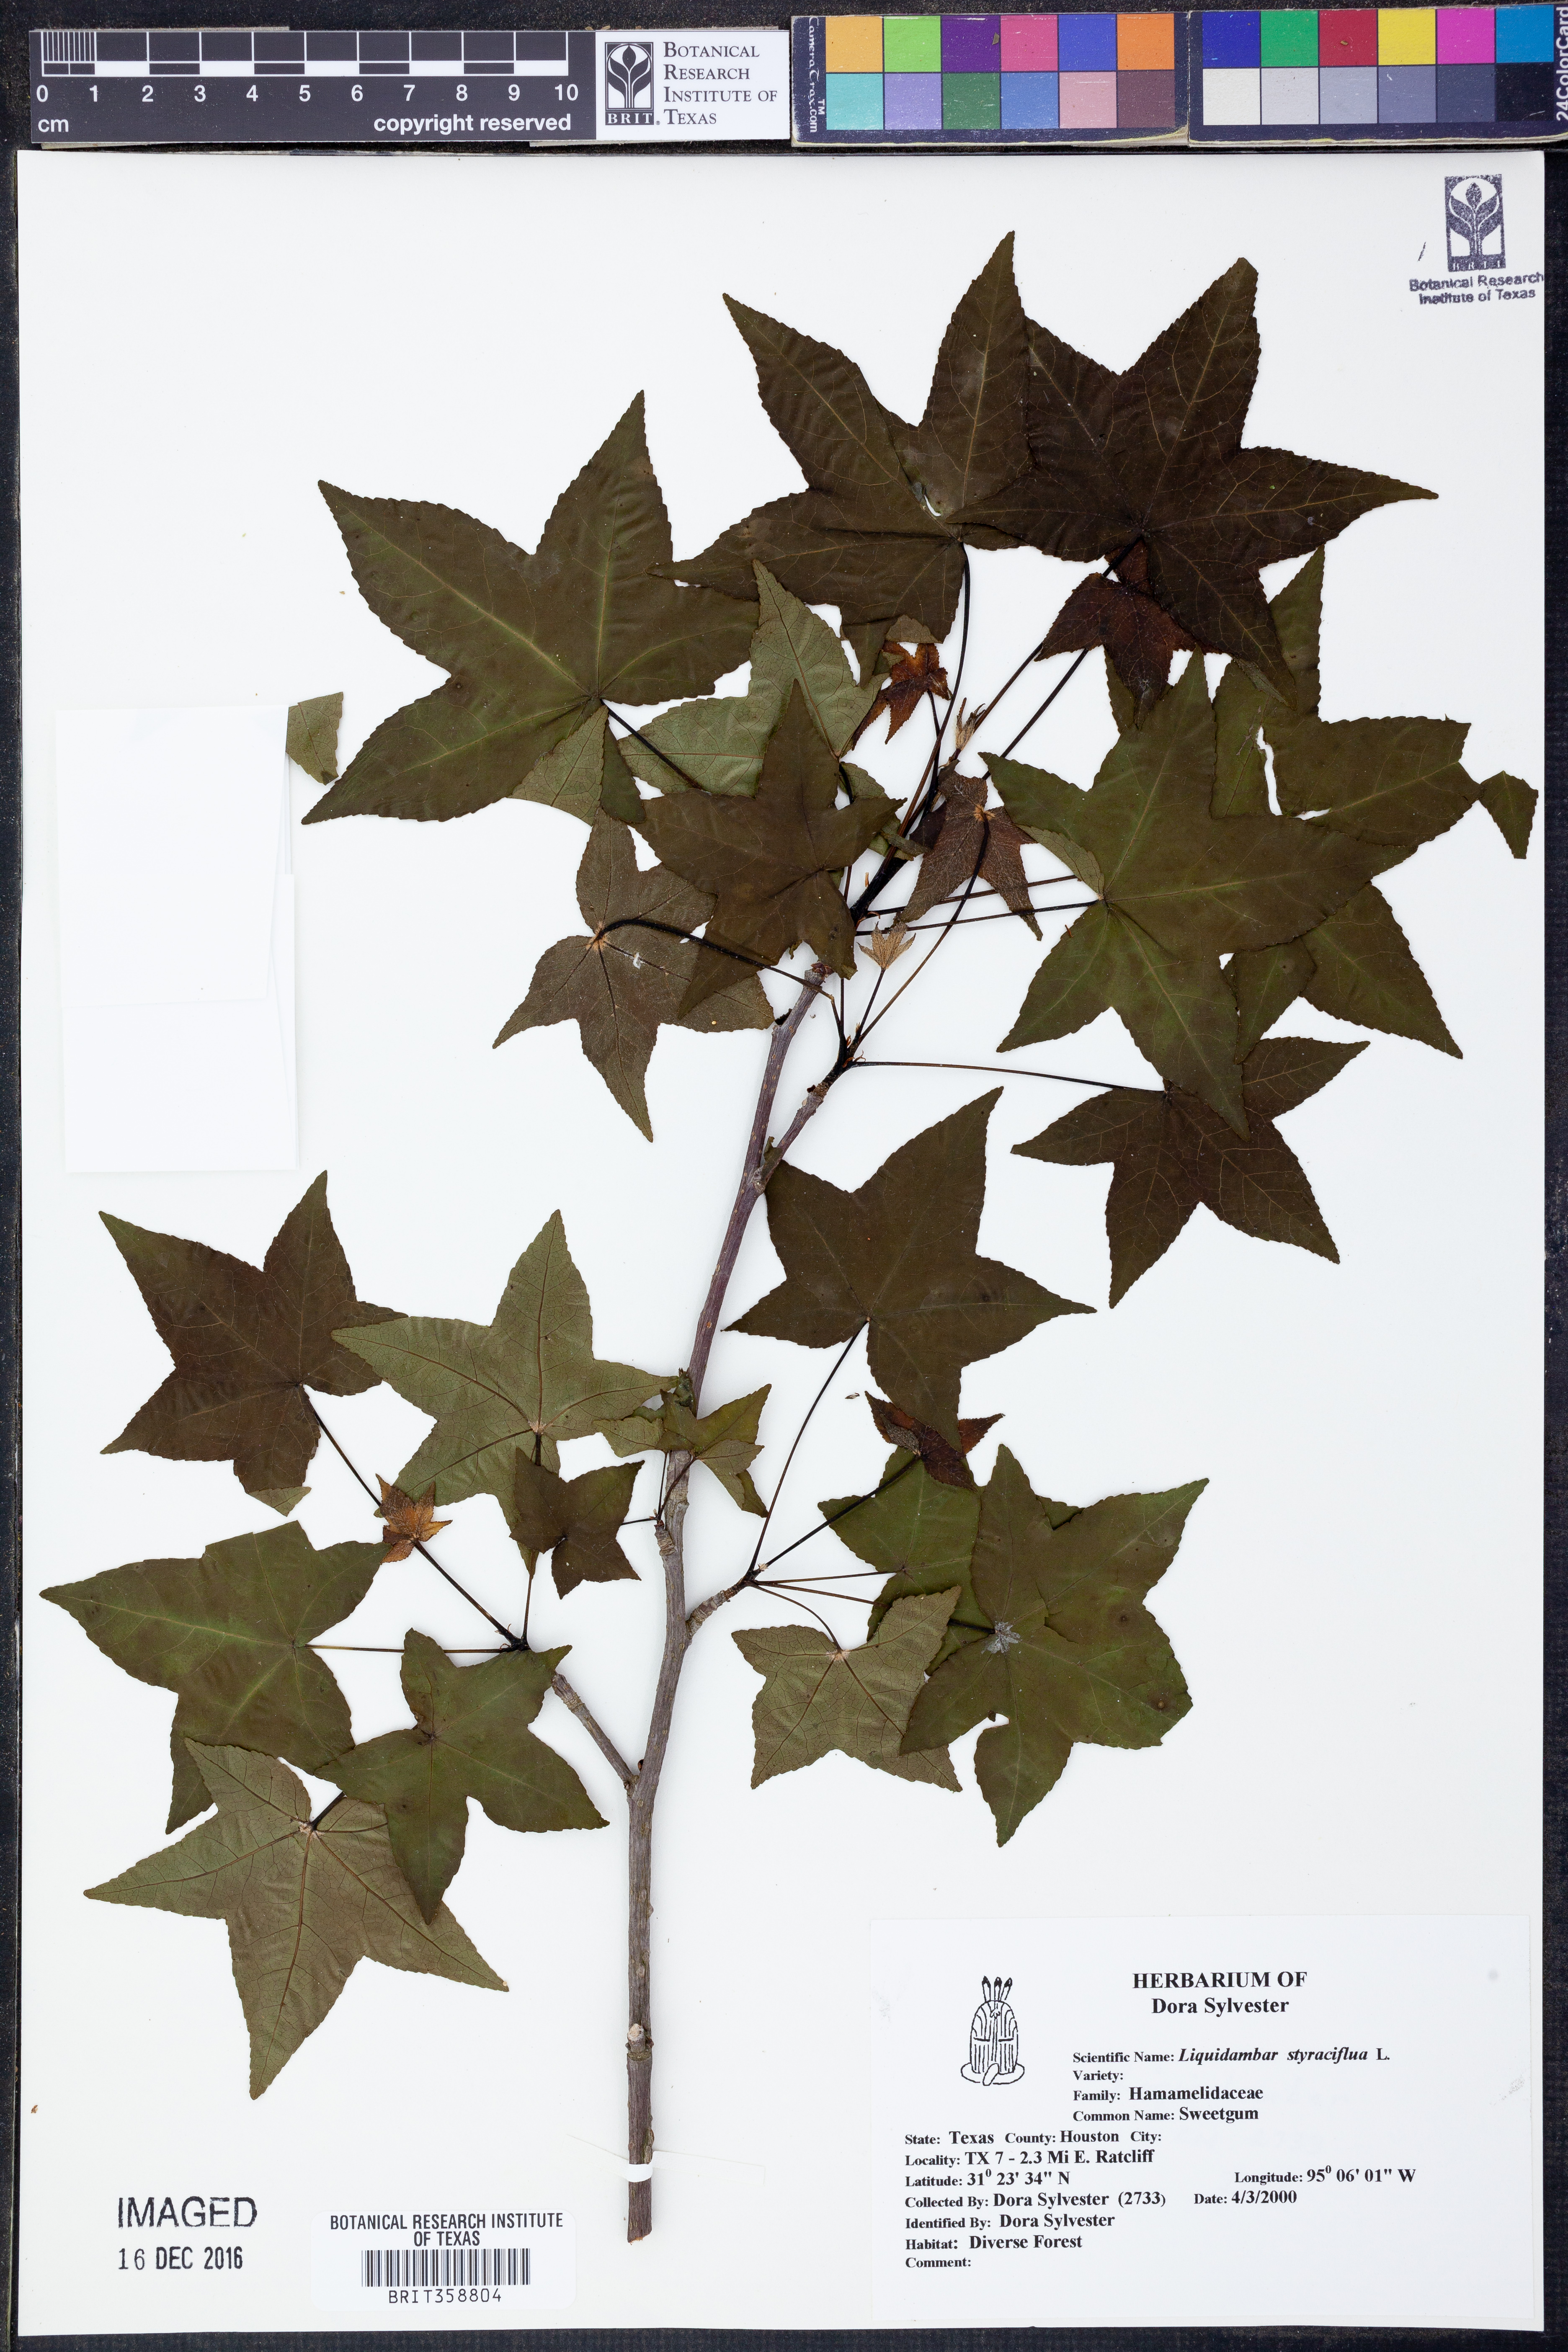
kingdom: Plantae
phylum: Tracheophyta
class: Magnoliopsida
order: Saxifragales
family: Altingiaceae
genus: Liquidambar
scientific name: Liquidambar styraciflua
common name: Sweet gum
